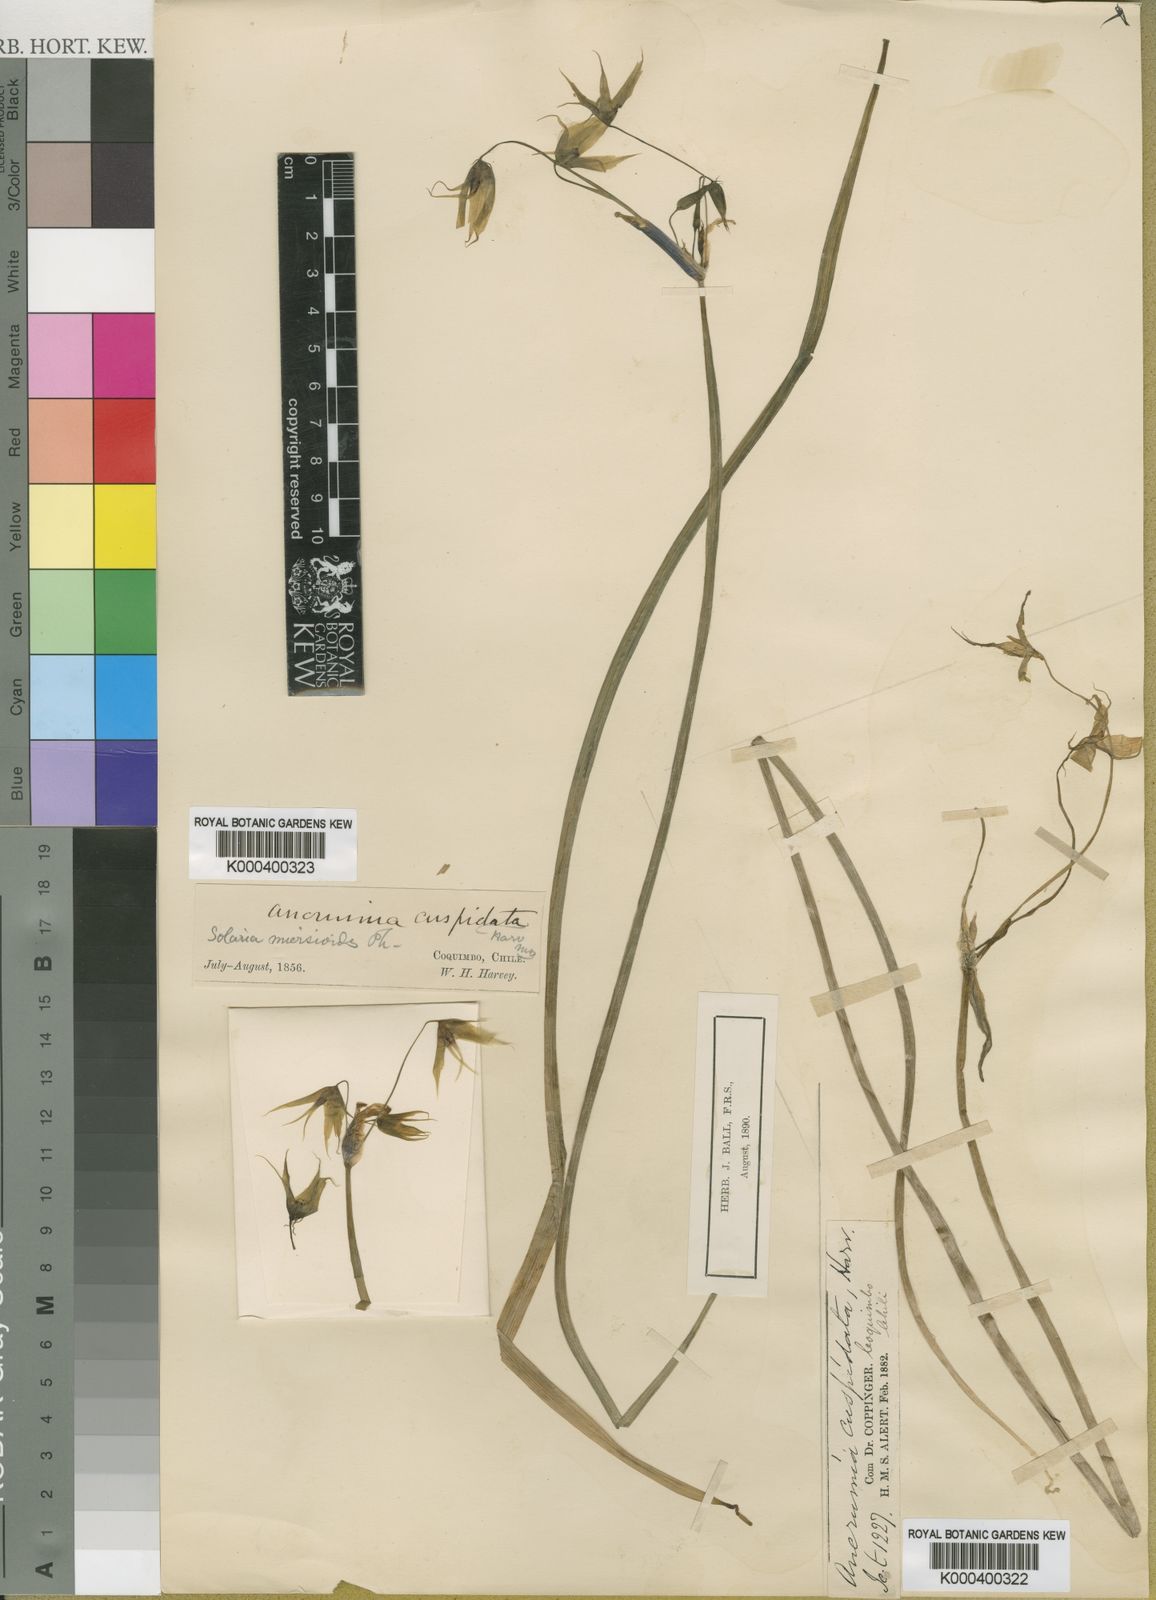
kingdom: Plantae
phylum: Tracheophyta
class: Liliopsida
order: Asparagales
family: Amaryllidaceae
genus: Gilliesia
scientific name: Gilliesia cuspidata
